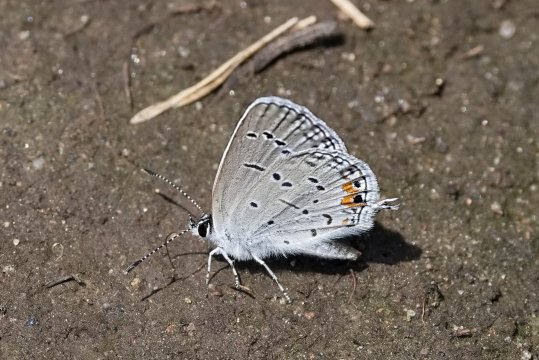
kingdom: Animalia
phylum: Arthropoda
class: Insecta
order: Lepidoptera
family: Lycaenidae
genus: Elkalyce
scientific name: Elkalyce comyntas
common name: Eastern Tailed-Blue
